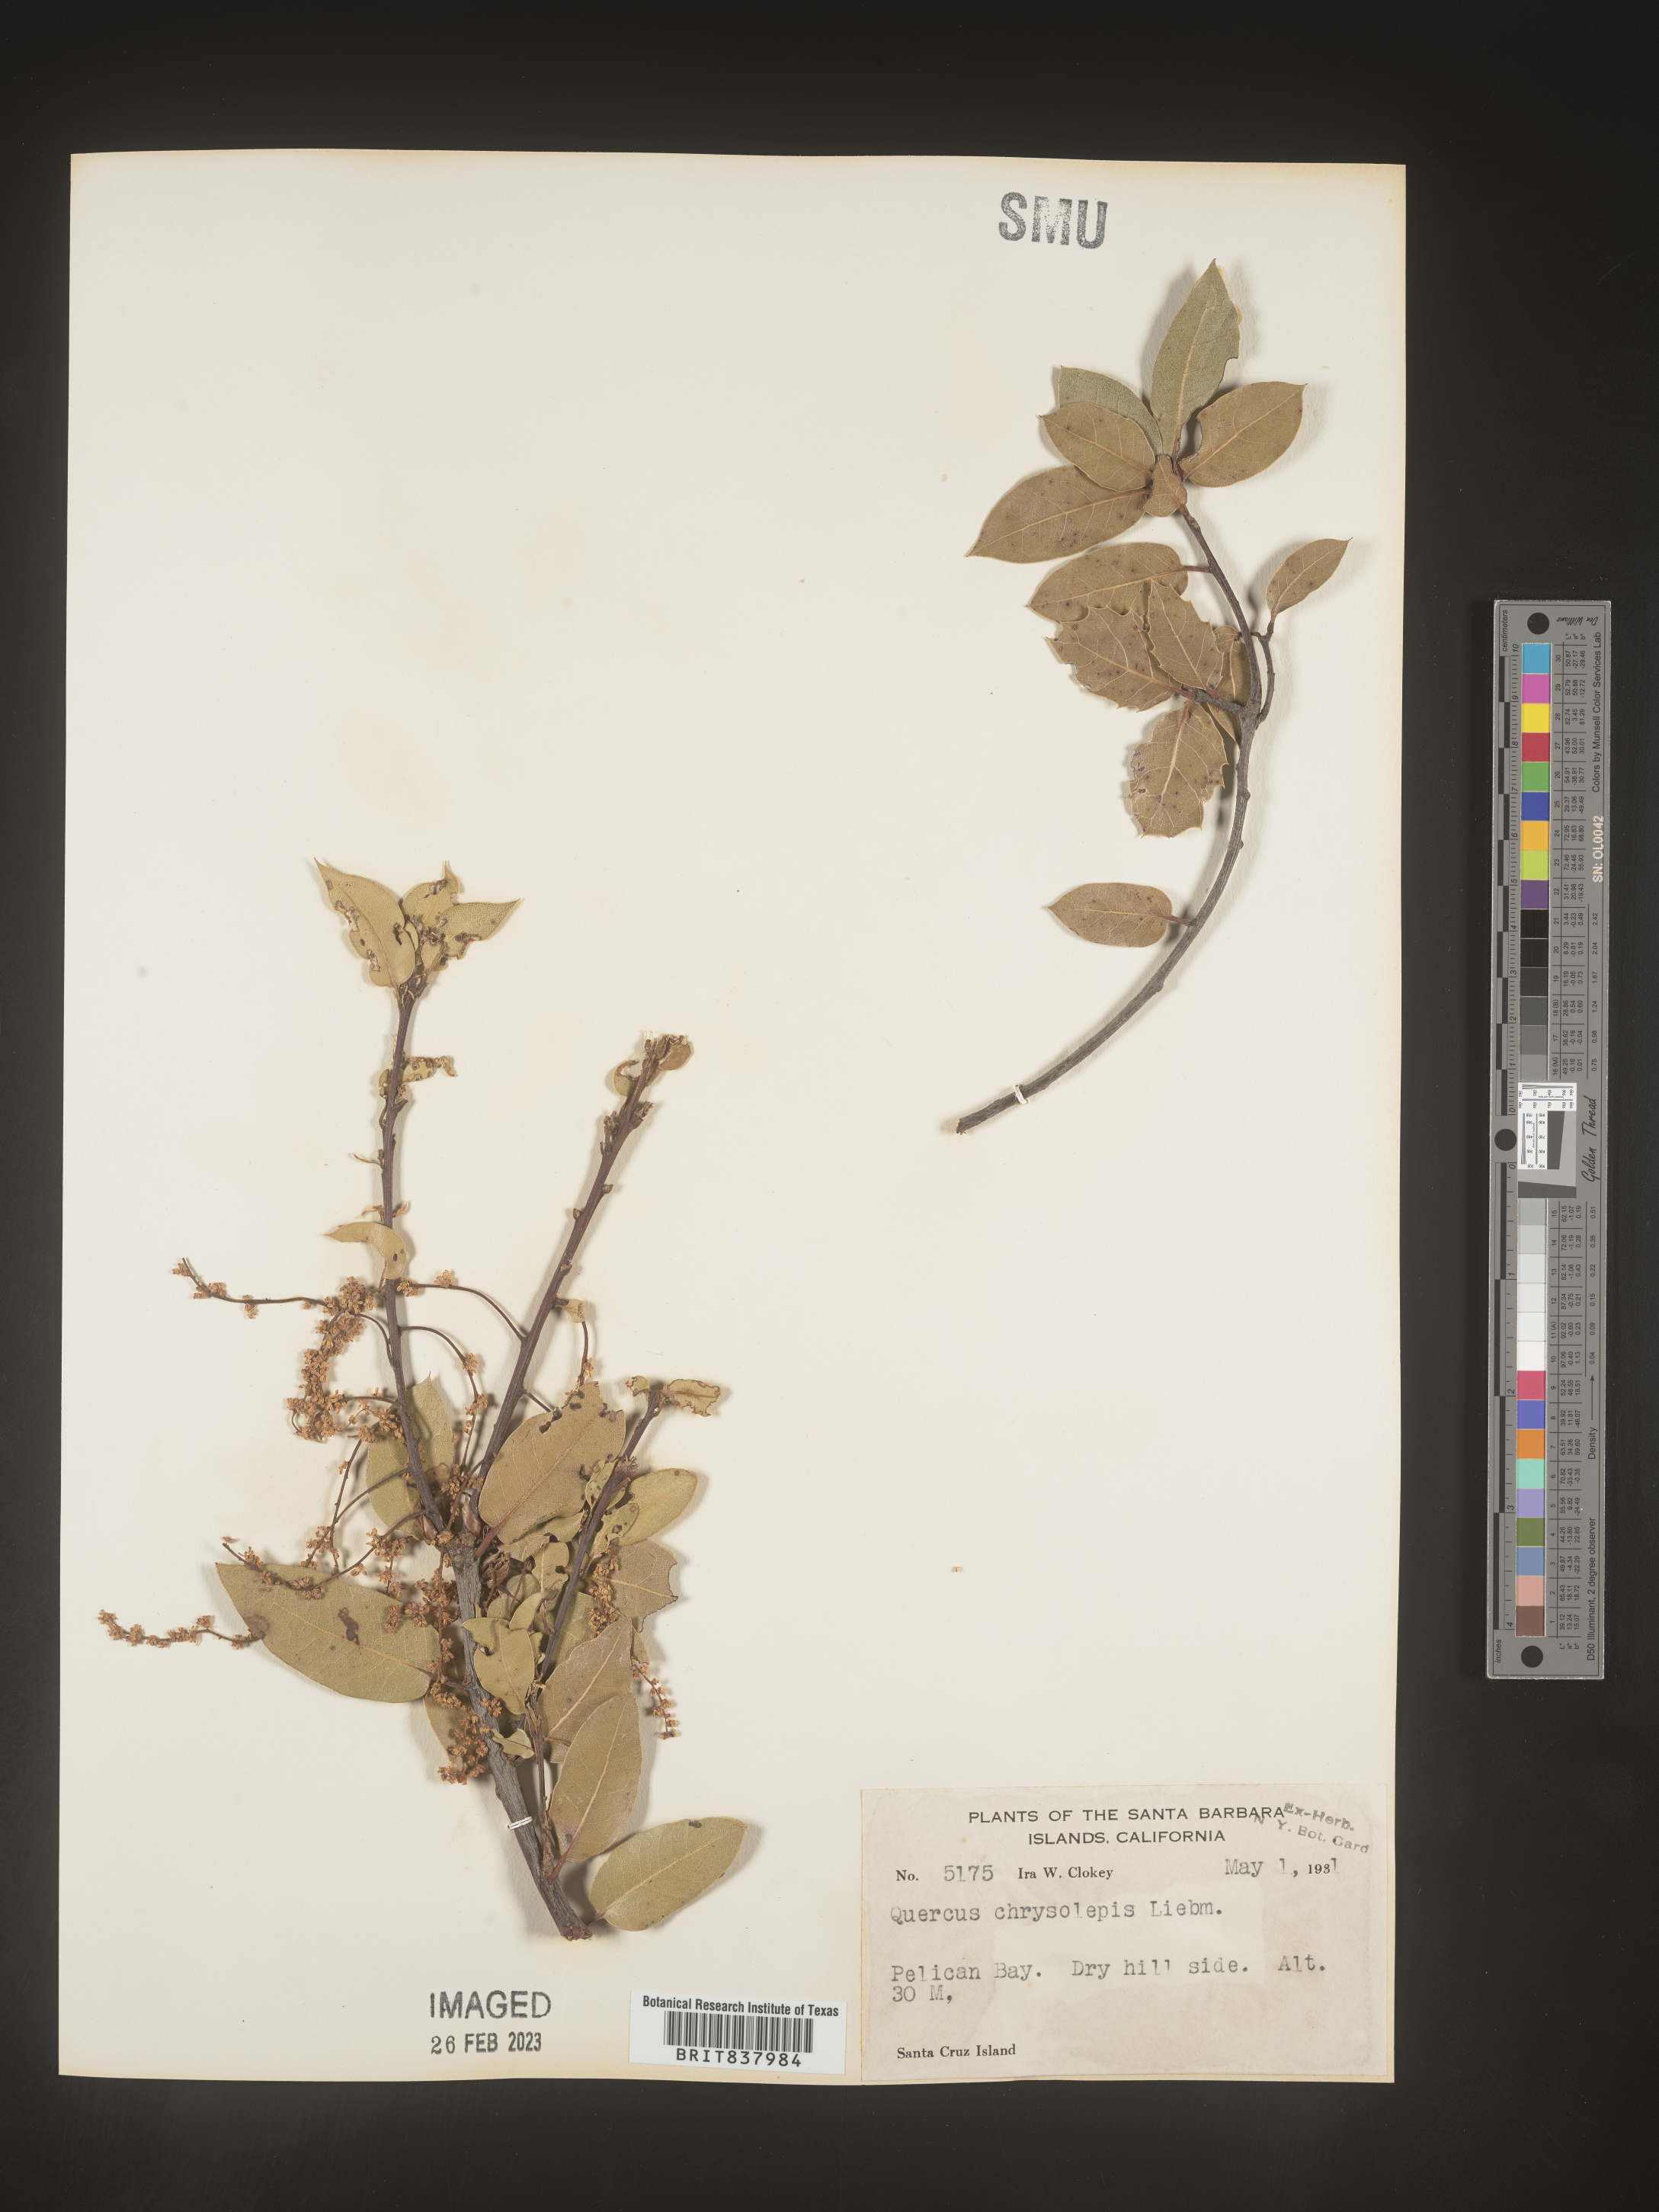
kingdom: Plantae
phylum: Tracheophyta
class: Magnoliopsida
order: Fagales
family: Fagaceae
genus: Quercus
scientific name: Quercus chrysolepis
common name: Canyon live oak
